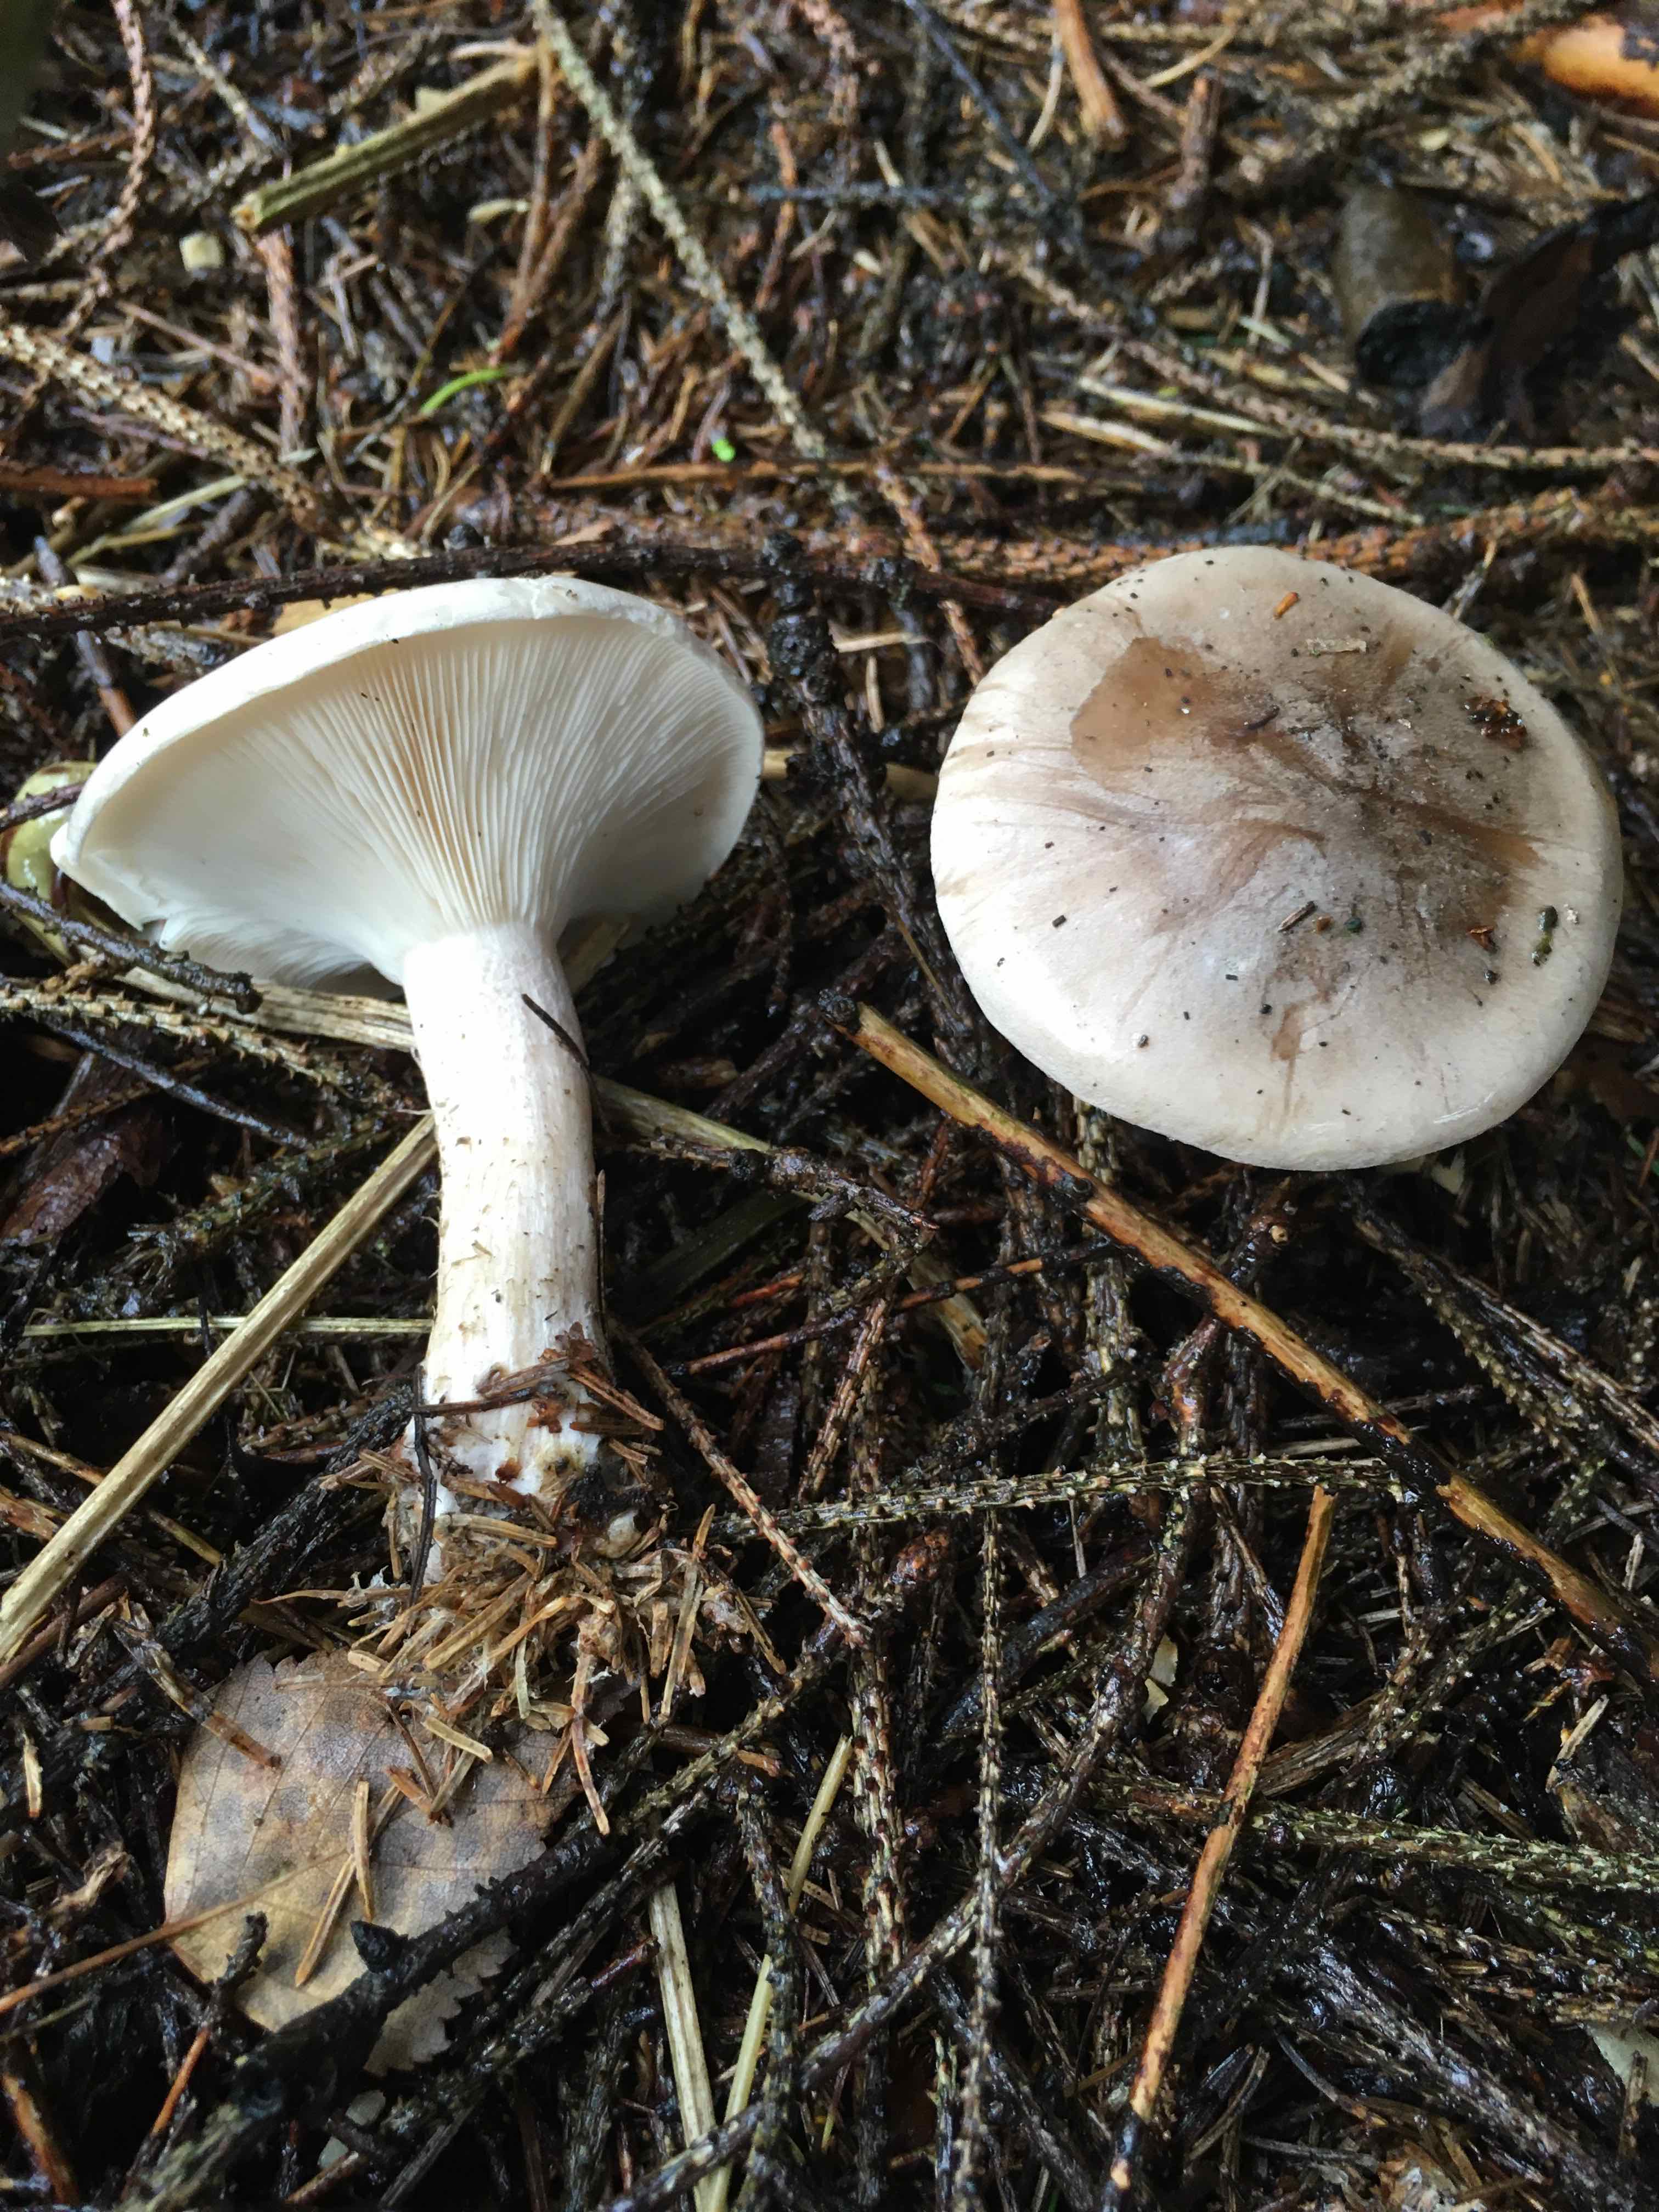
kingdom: Fungi
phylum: Basidiomycota
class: Agaricomycetes
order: Agaricales
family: Tricholomataceae
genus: Clitocybe
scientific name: Clitocybe nebularis
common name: tåge-tragthat
